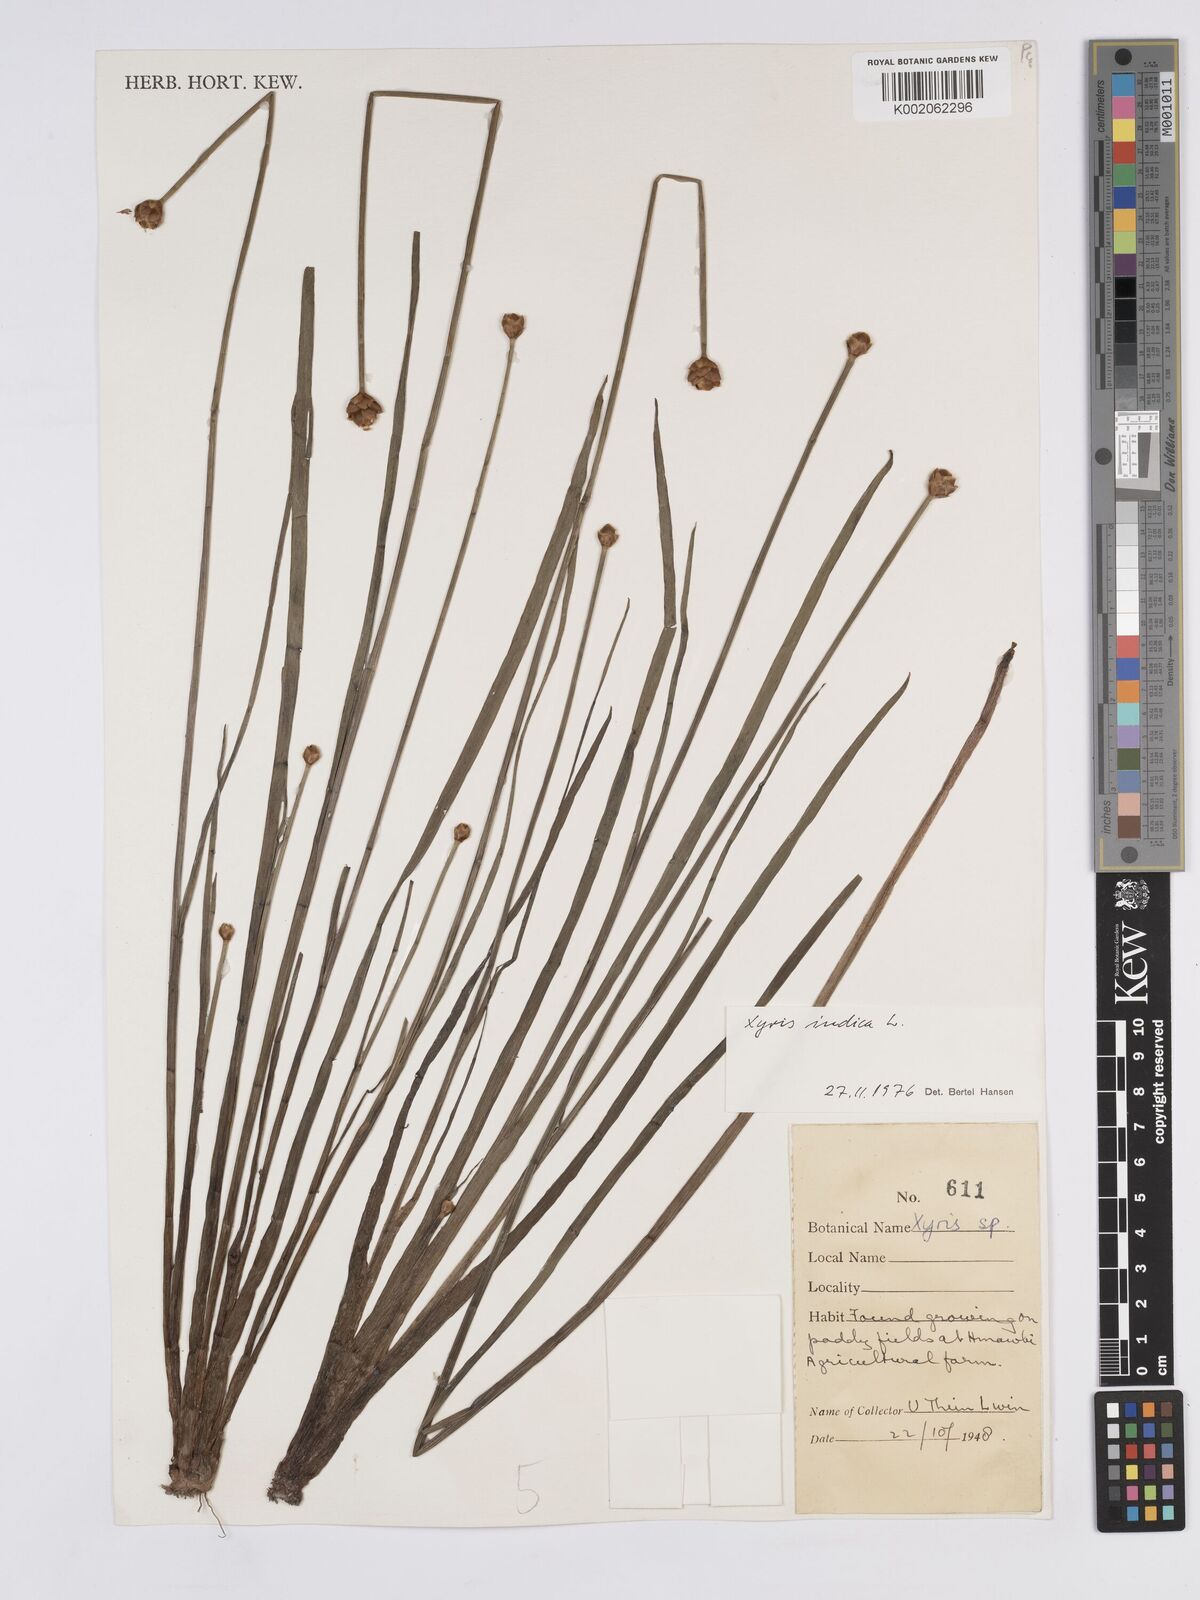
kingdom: Plantae
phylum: Tracheophyta
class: Liliopsida
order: Poales
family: Xyridaceae
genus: Xyris
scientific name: Xyris indica
